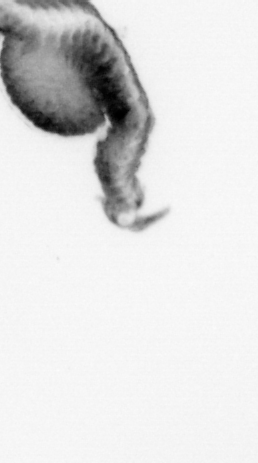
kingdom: Animalia
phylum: Annelida
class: Polychaeta
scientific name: Polychaeta
